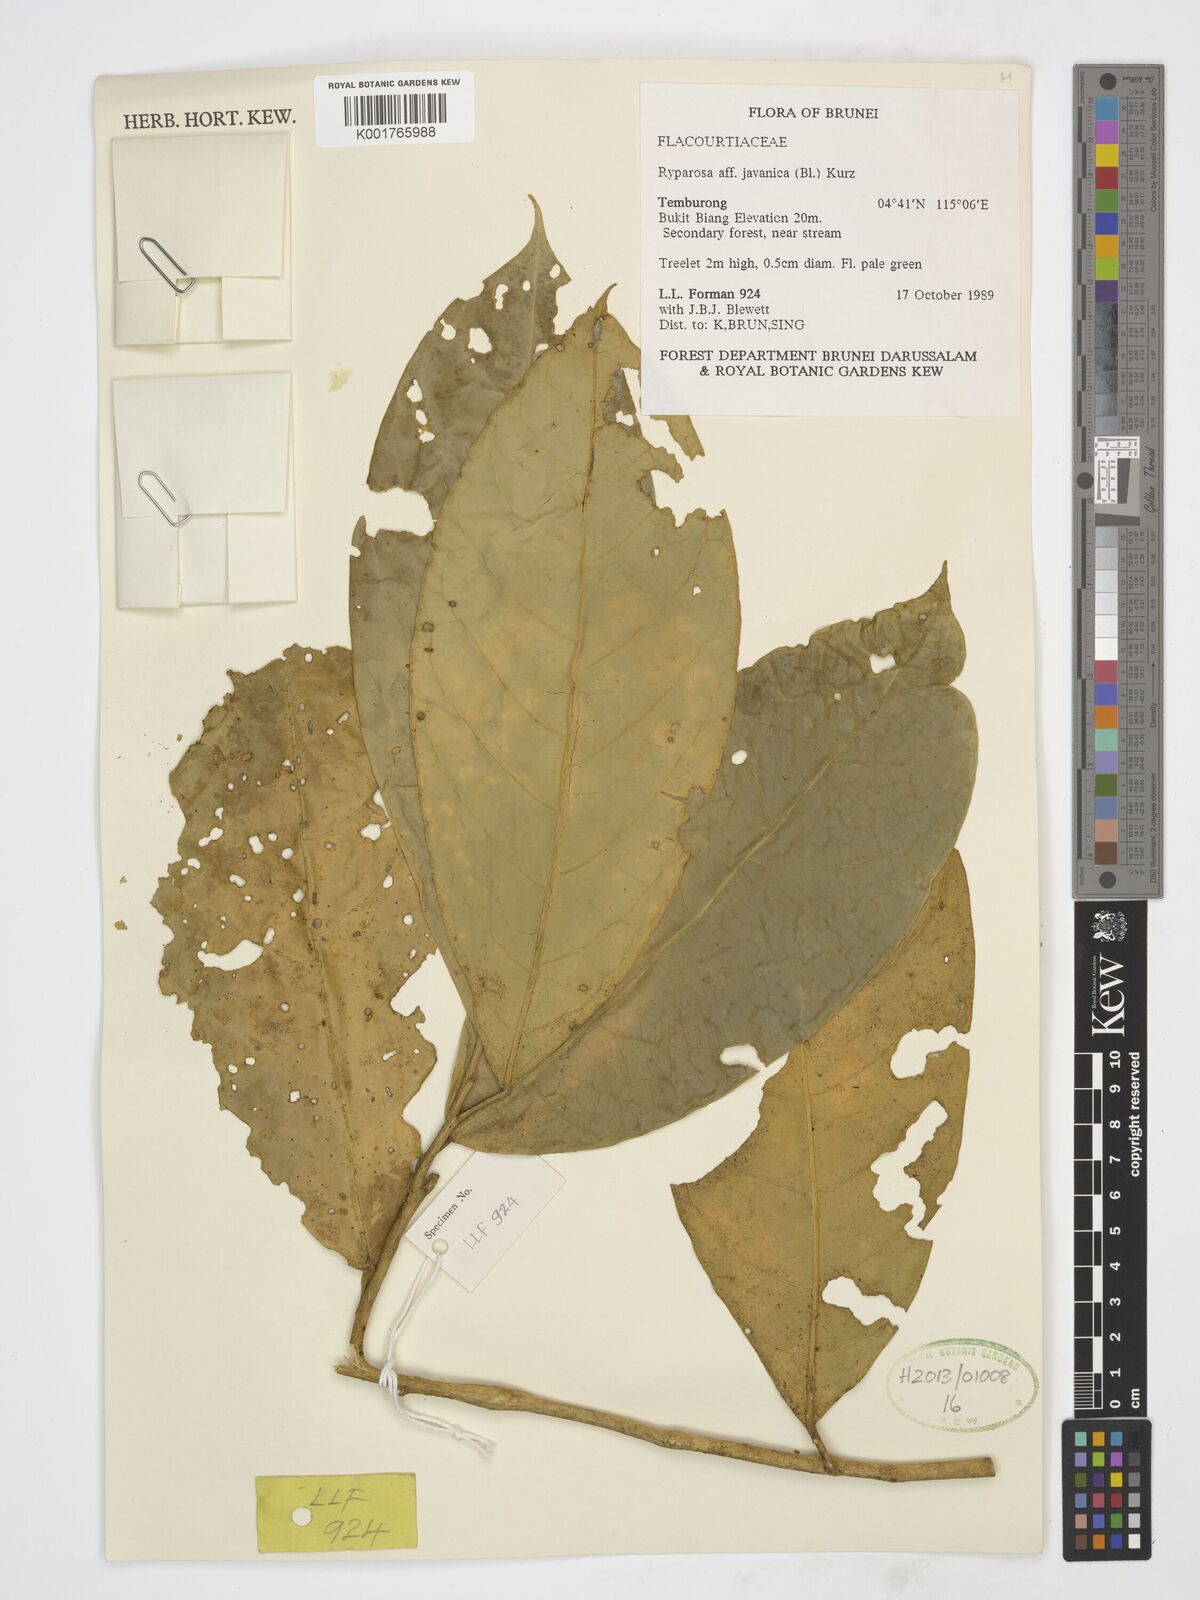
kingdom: Plantae
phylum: Tracheophyta
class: Magnoliopsida
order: Malpighiales
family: Achariaceae
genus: Ryparosa
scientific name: Ryparosa javanica
